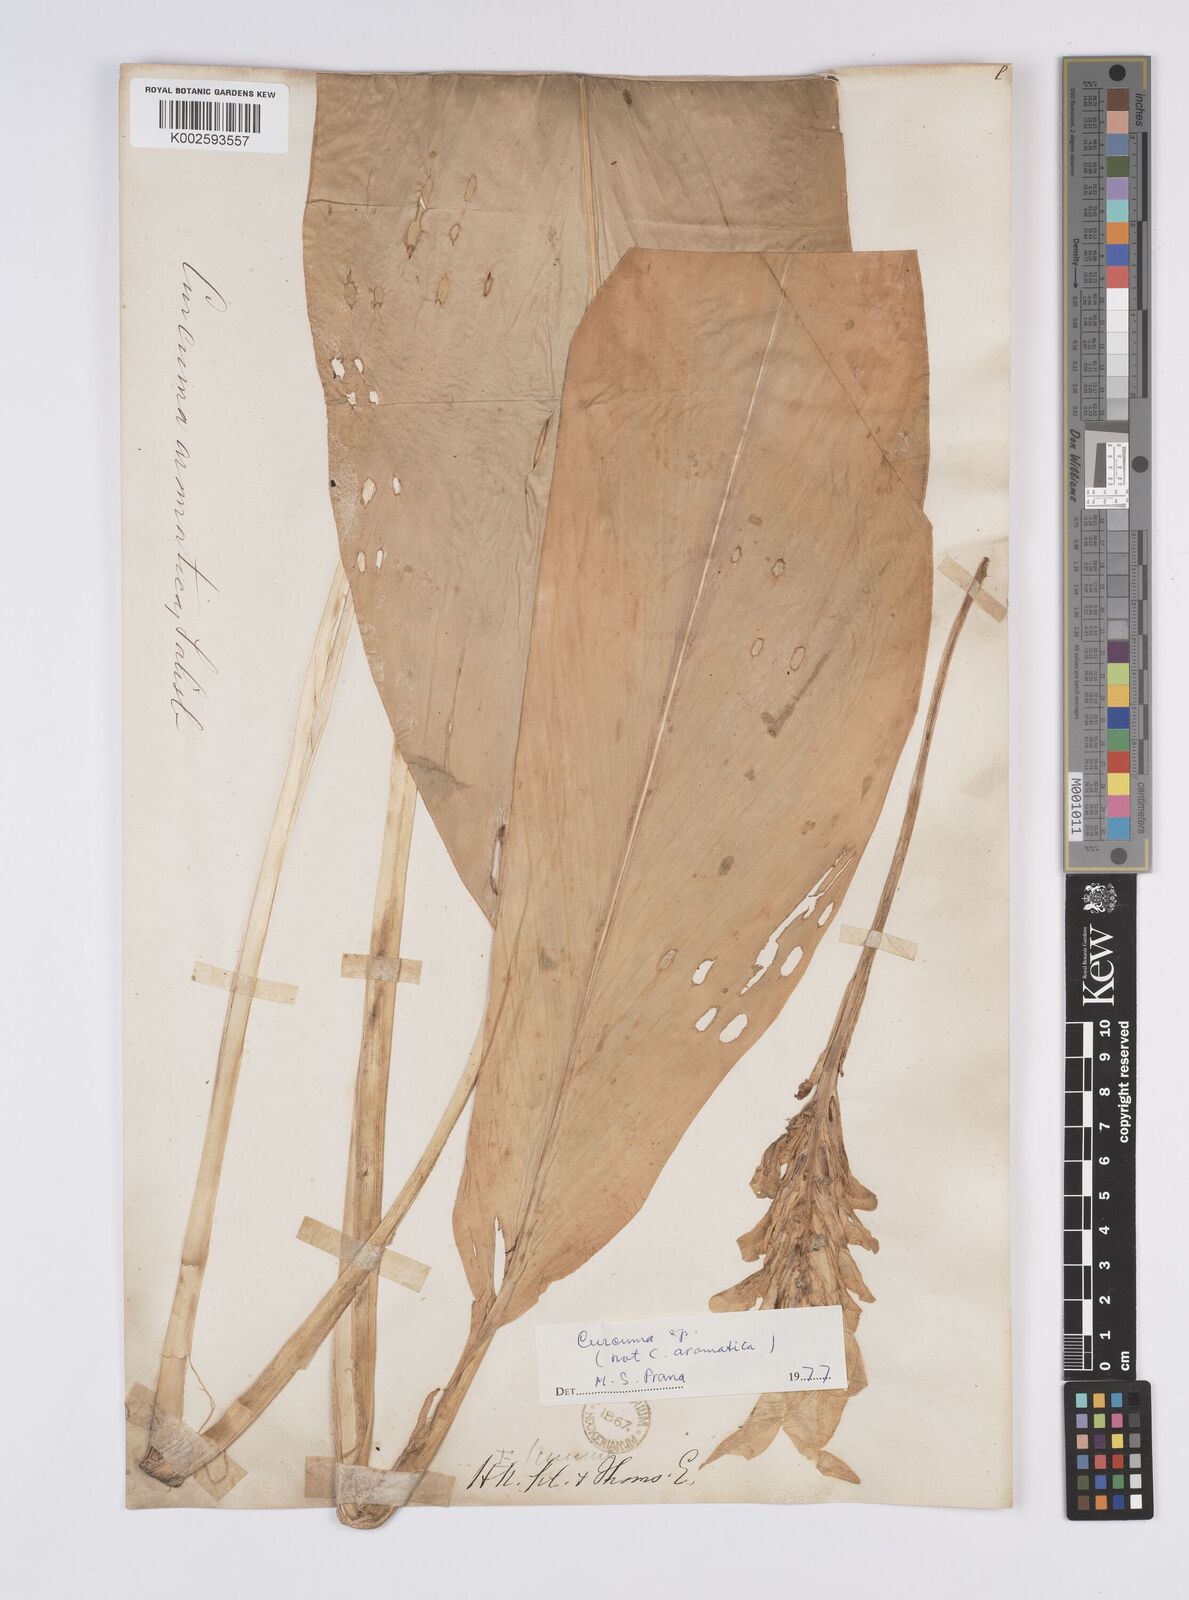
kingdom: Plantae
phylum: Tracheophyta
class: Liliopsida
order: Zingiberales
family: Zingiberaceae
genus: Curcuma
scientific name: Curcuma aromatica
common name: Wild turmeric
